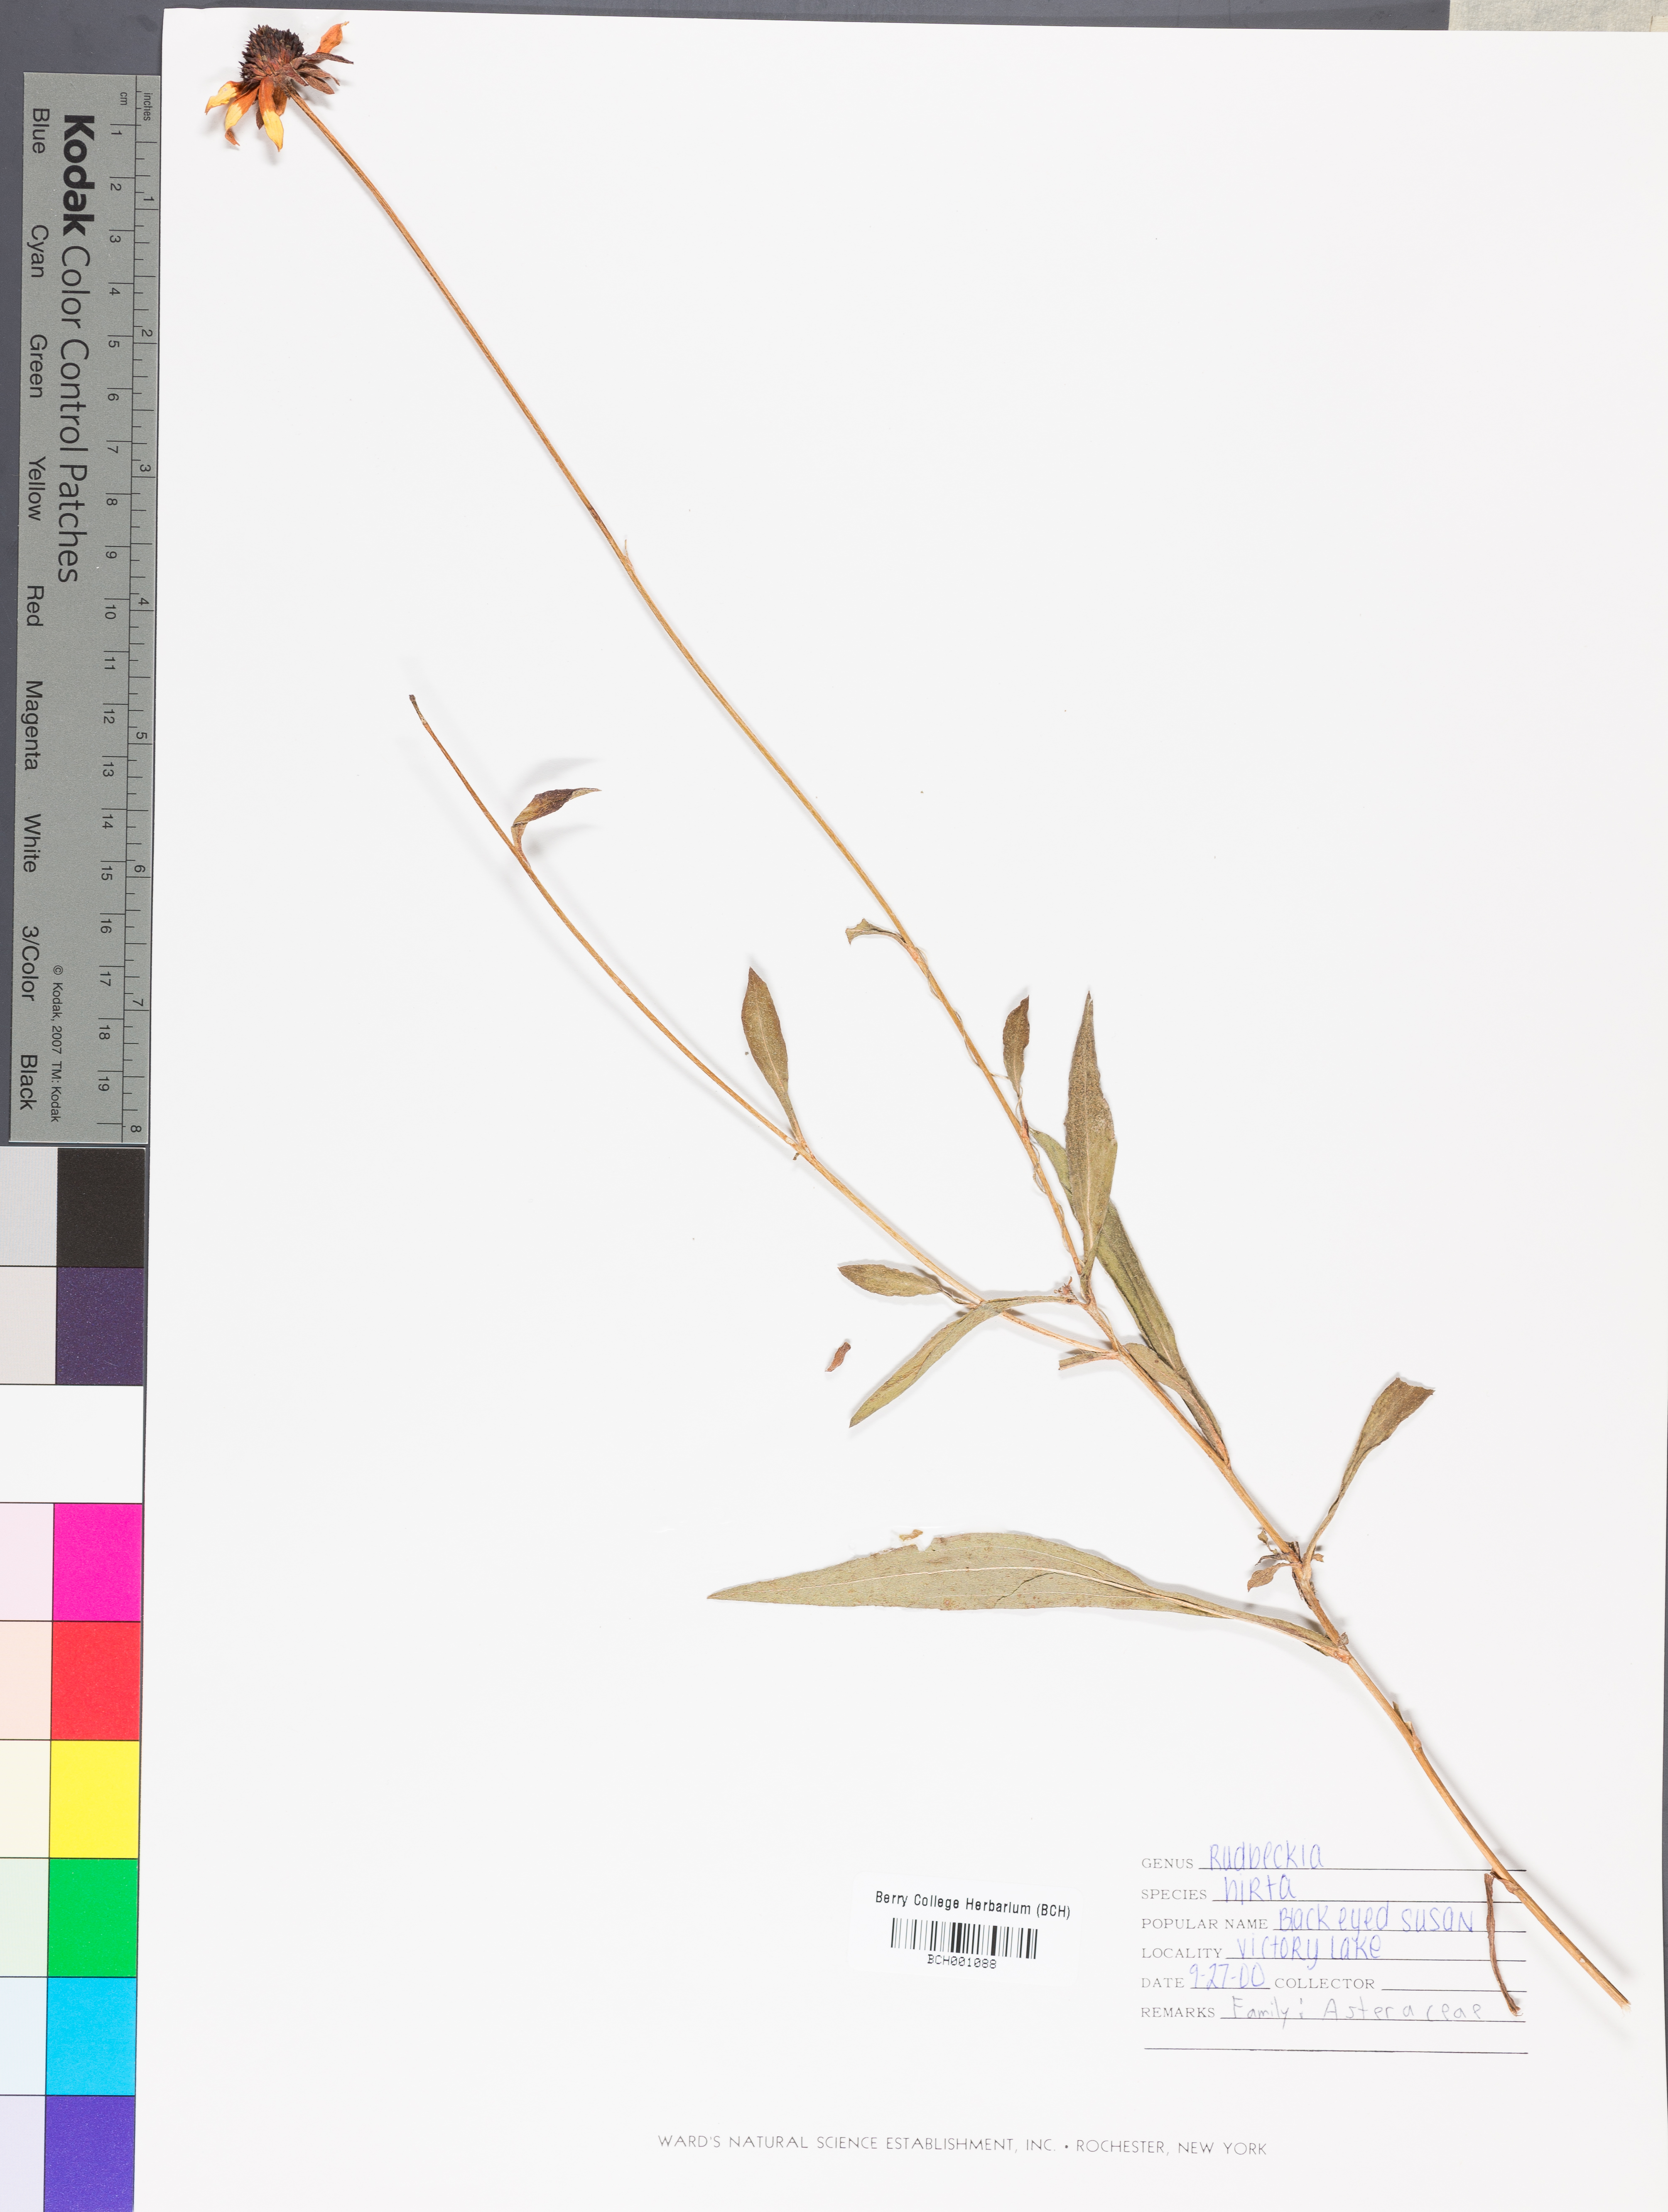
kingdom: Plantae
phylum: Tracheophyta
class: Magnoliopsida
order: Asterales
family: Asteraceae
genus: Rudbeckia
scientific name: Rudbeckia hirta
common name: Black-eyed-susan
